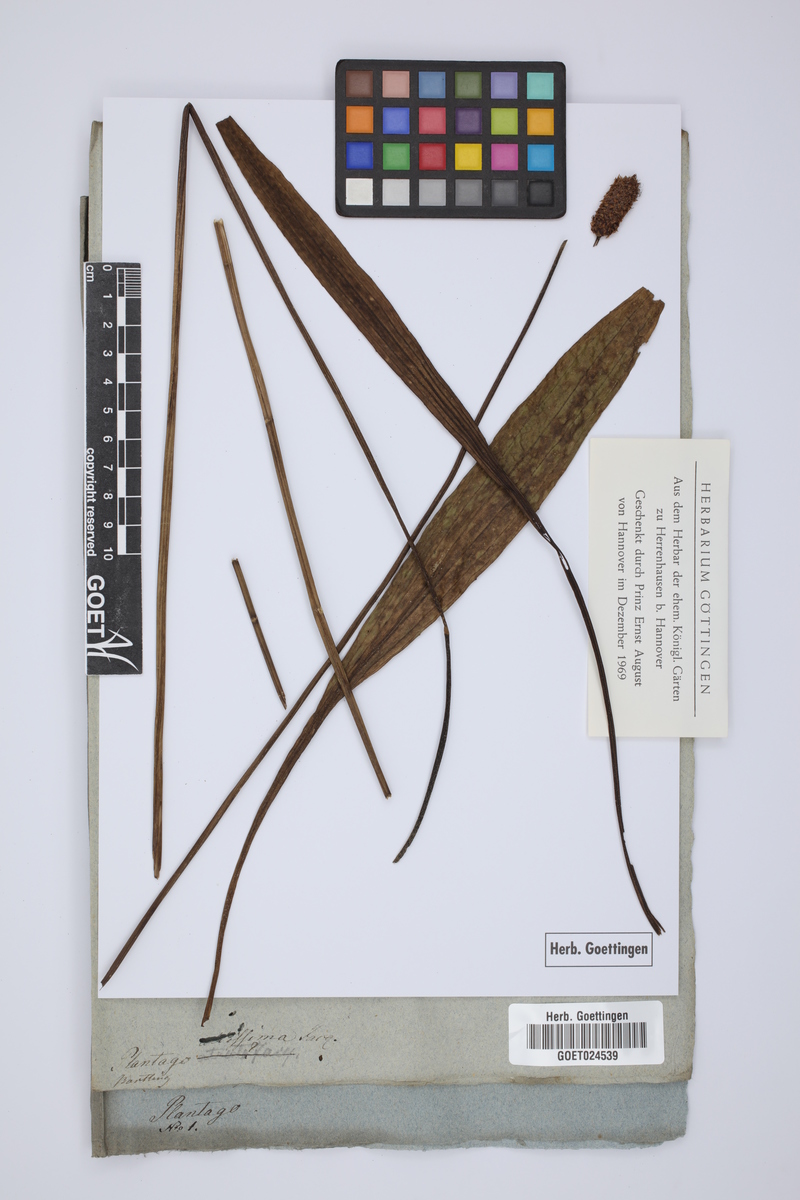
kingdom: Plantae
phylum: Tracheophyta
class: Magnoliopsida
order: Lamiales
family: Plantaginaceae
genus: Plantago
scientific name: Plantago altissima
